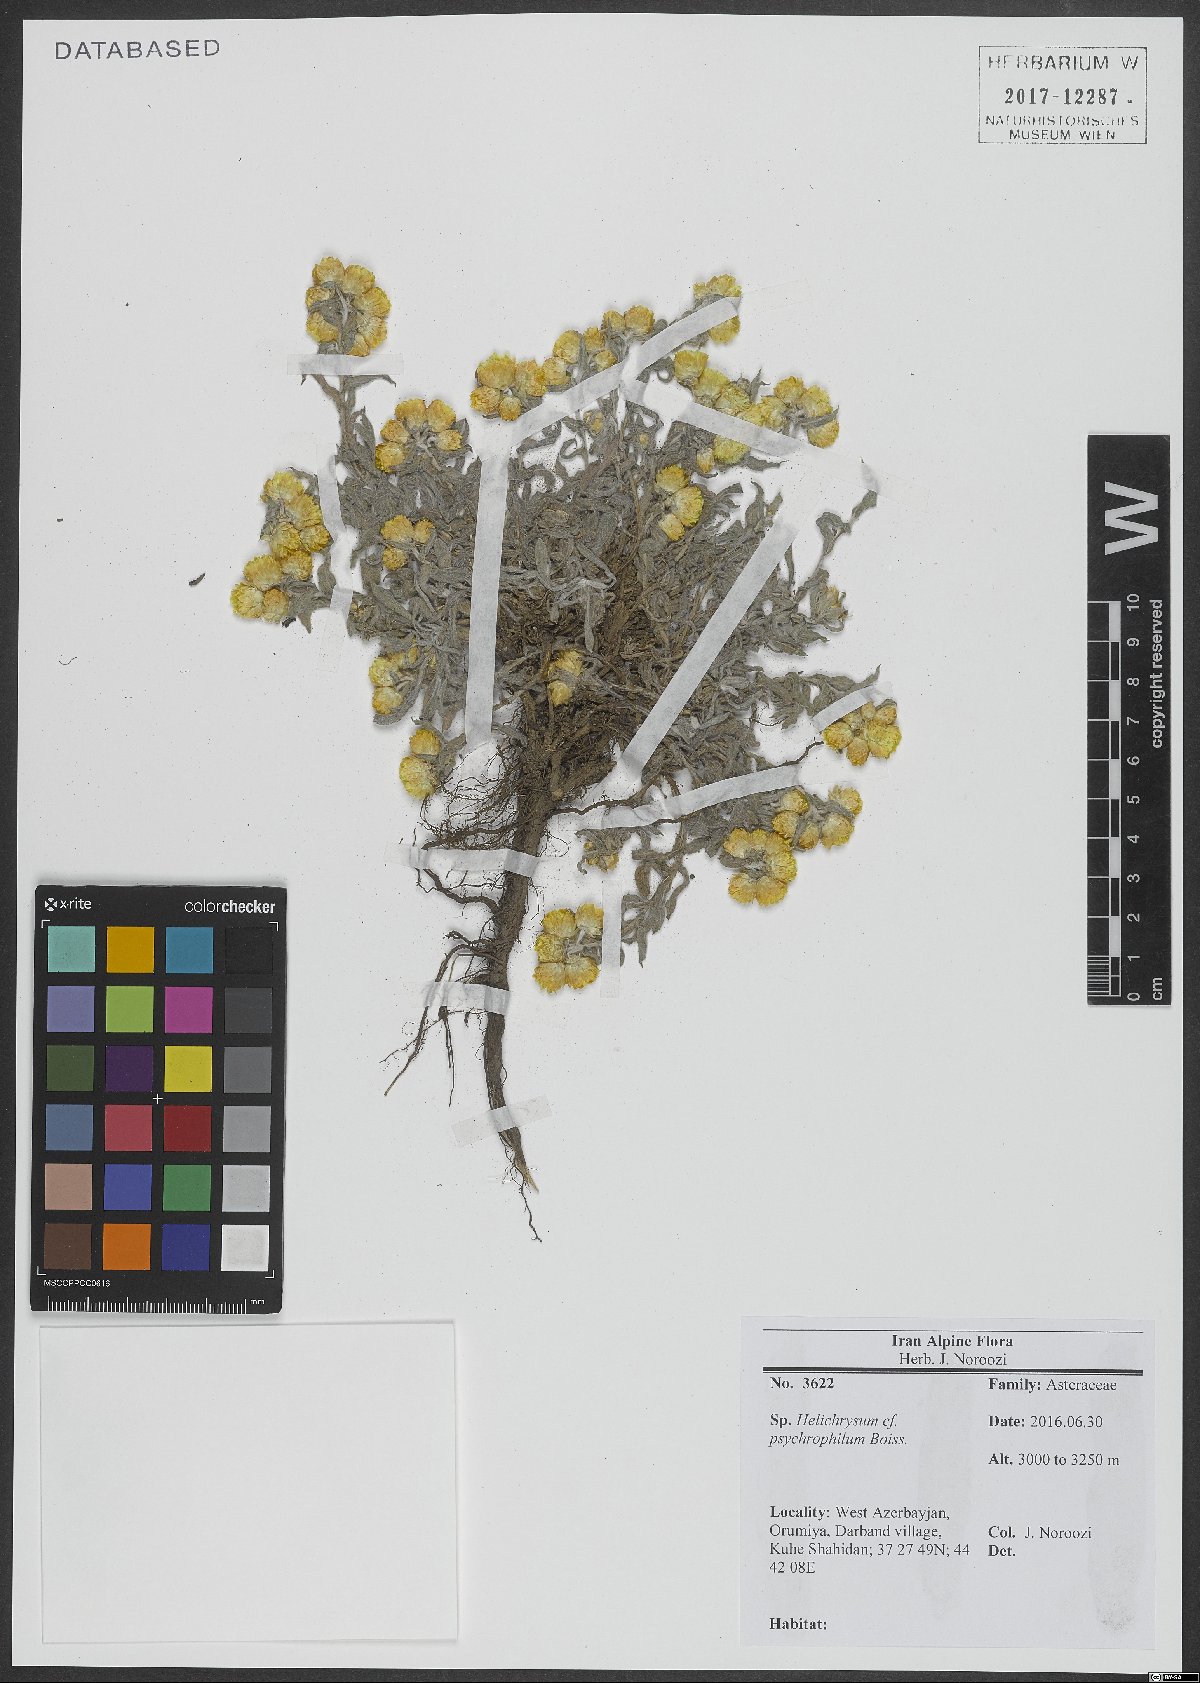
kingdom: Plantae
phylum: Tracheophyta
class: Magnoliopsida
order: Asterales
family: Asteraceae
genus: Helichrysum
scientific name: Helichrysum psychrophilum
